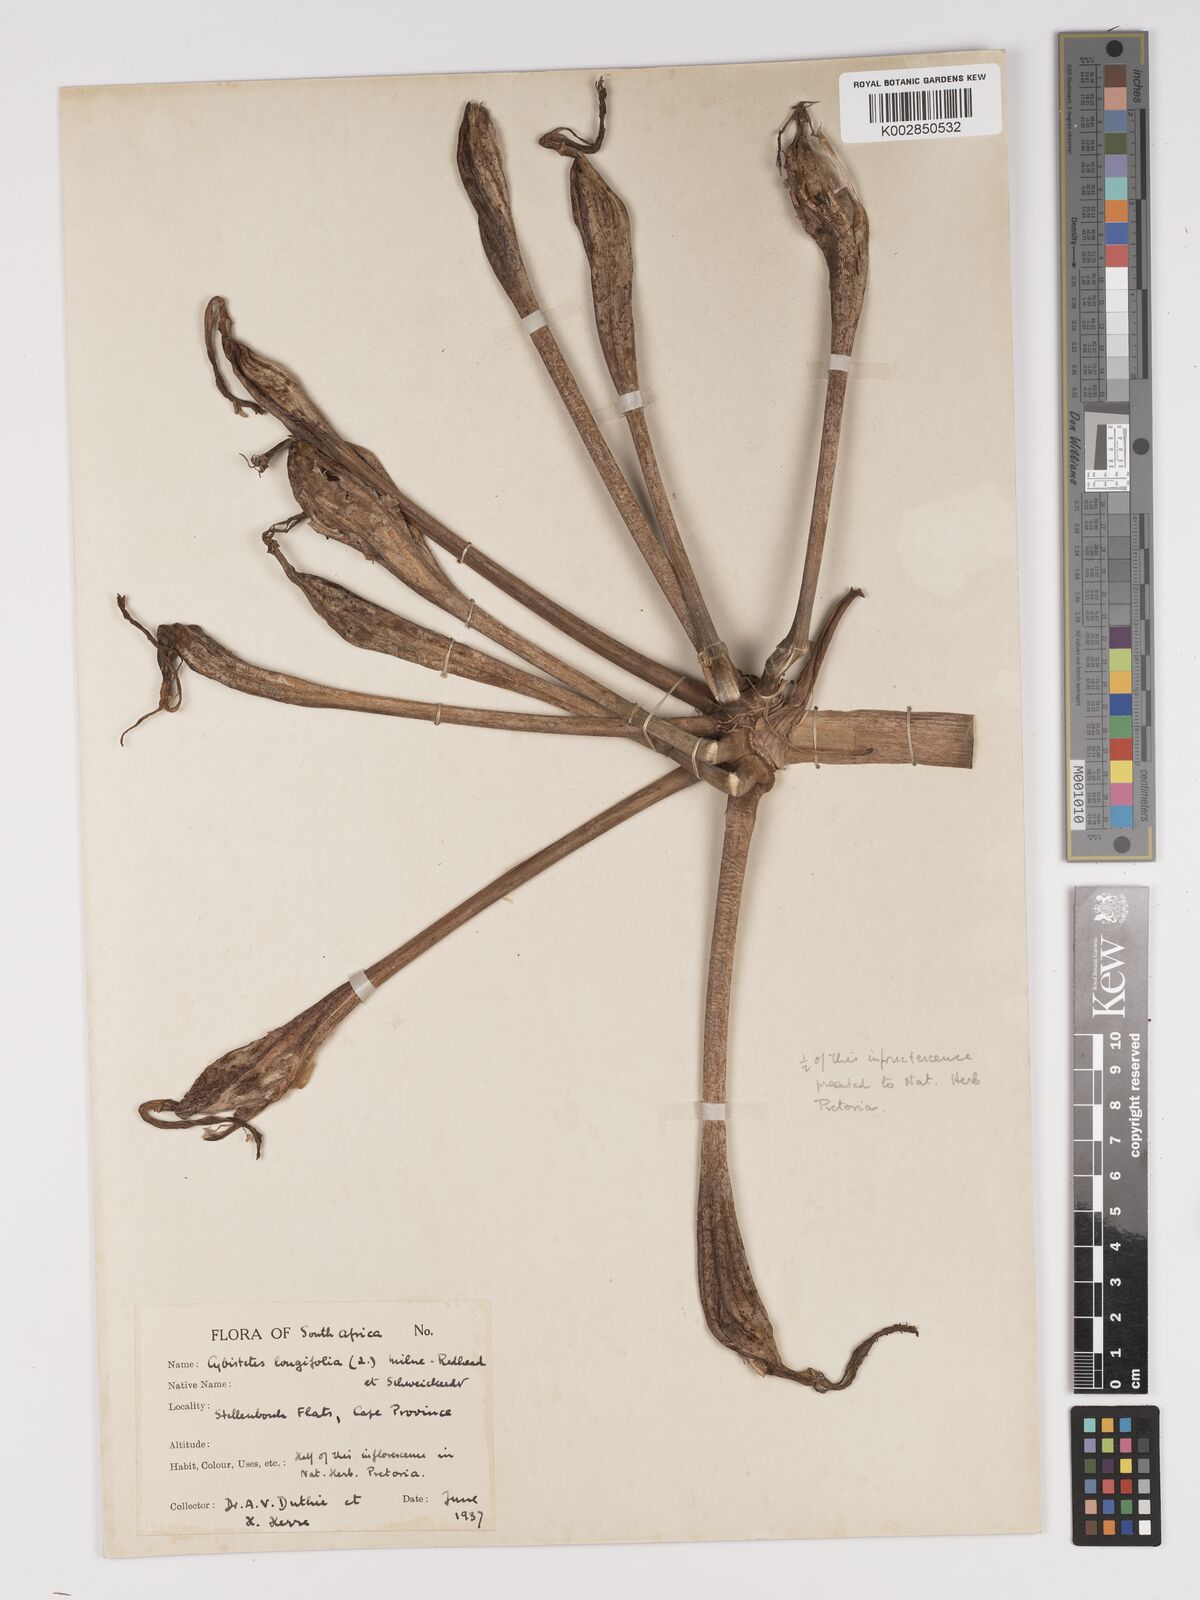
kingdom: Plantae
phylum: Tracheophyta
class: Liliopsida
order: Asparagales
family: Amaryllidaceae
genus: Ammocharis
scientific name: Ammocharis longifolia
